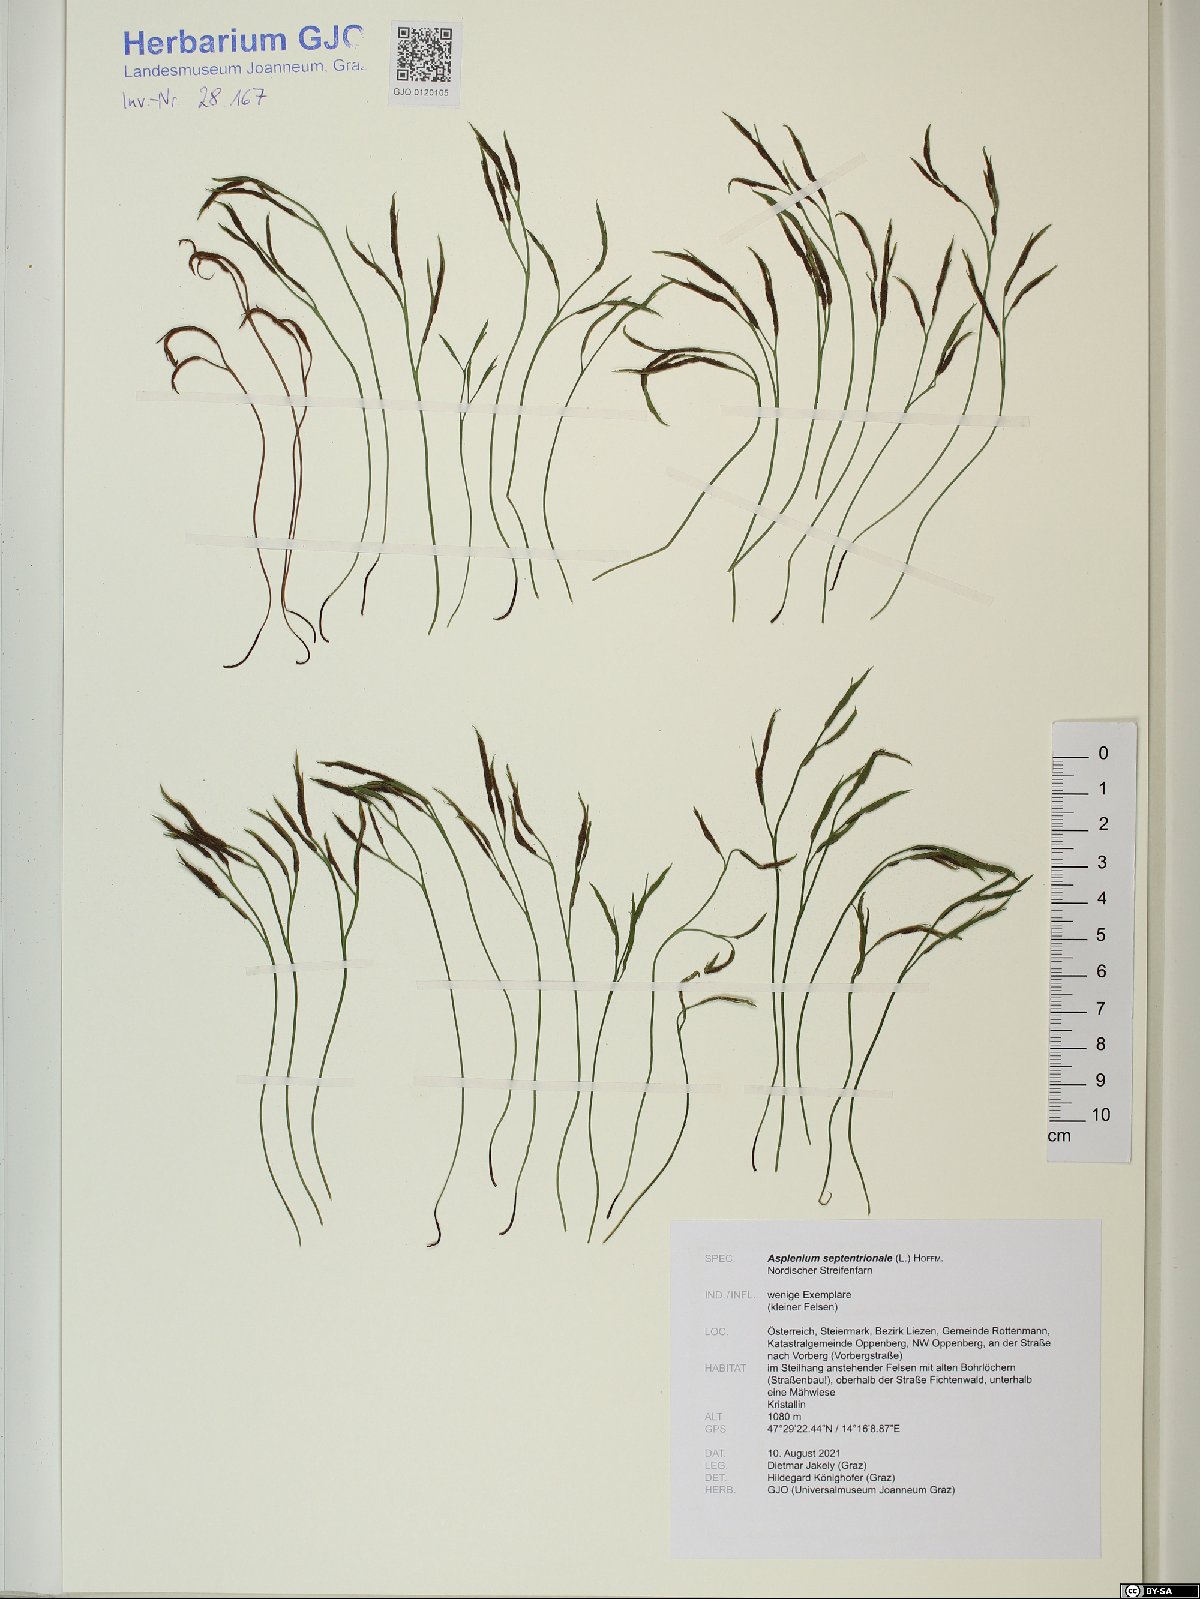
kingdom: Plantae
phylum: Tracheophyta
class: Polypodiopsida
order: Polypodiales
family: Aspleniaceae
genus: Asplenium
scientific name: Asplenium septentrionale
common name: Forked spleenwort
